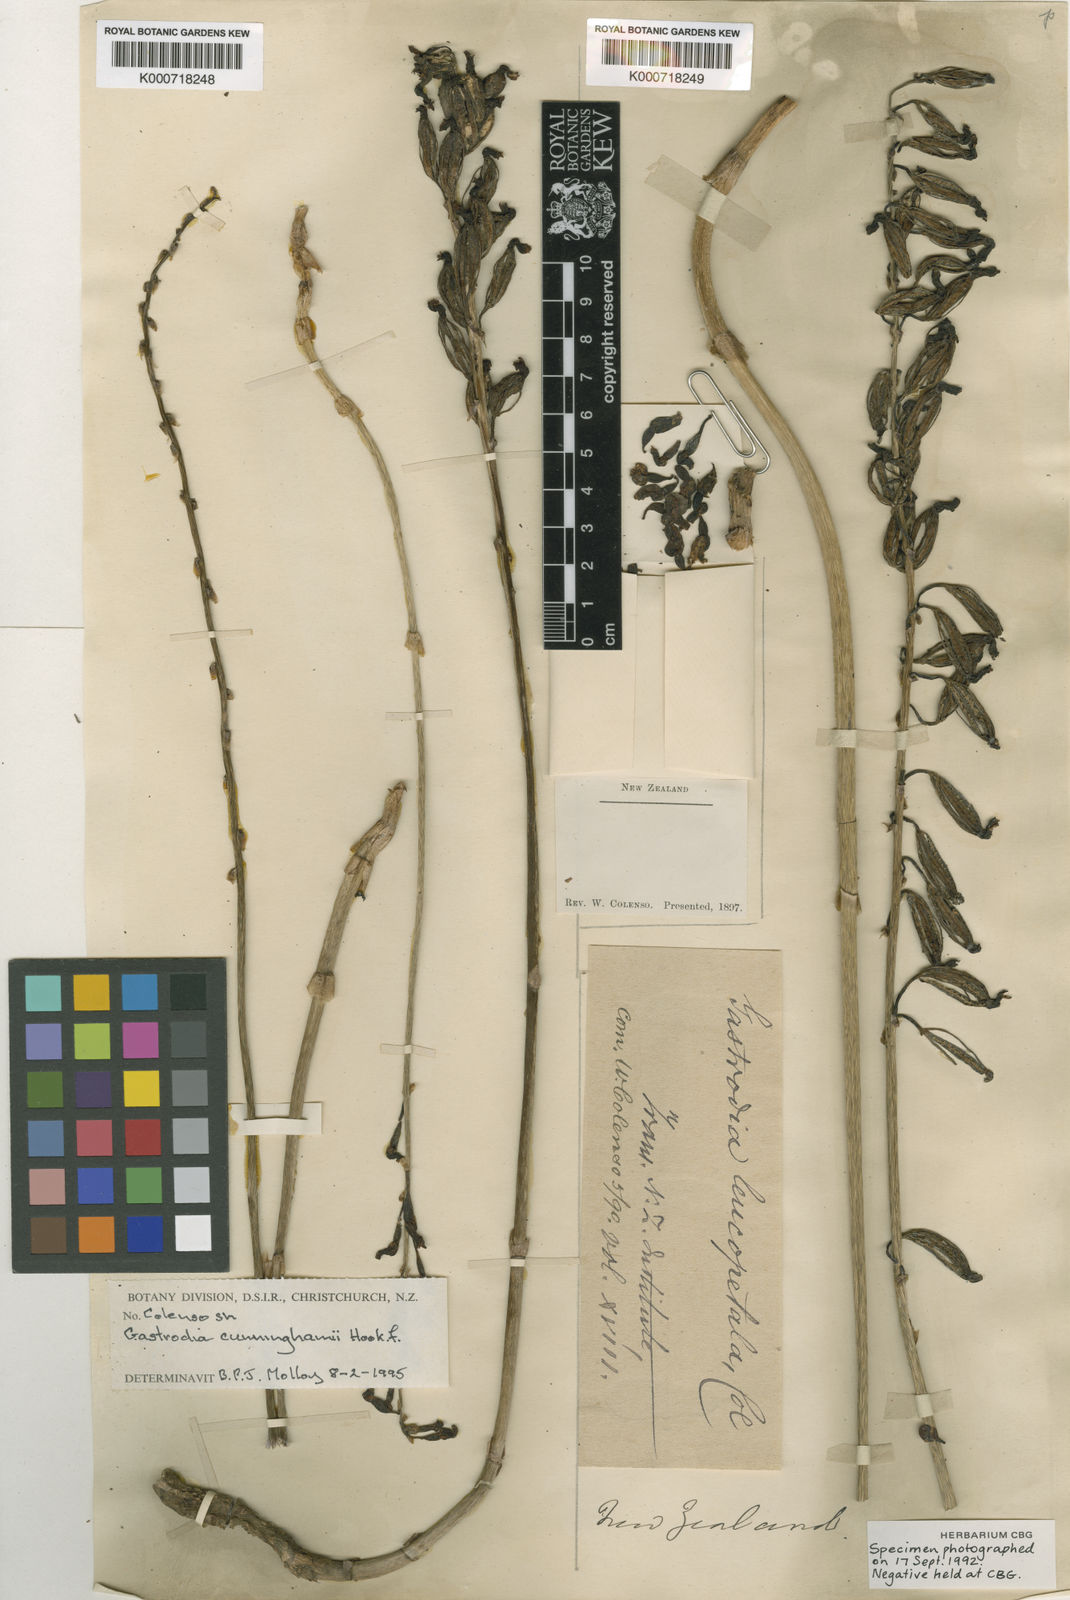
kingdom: Plantae
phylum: Tracheophyta
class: Liliopsida
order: Asparagales
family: Orchidaceae
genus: Gastrodia
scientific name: Gastrodia cunninghamii
